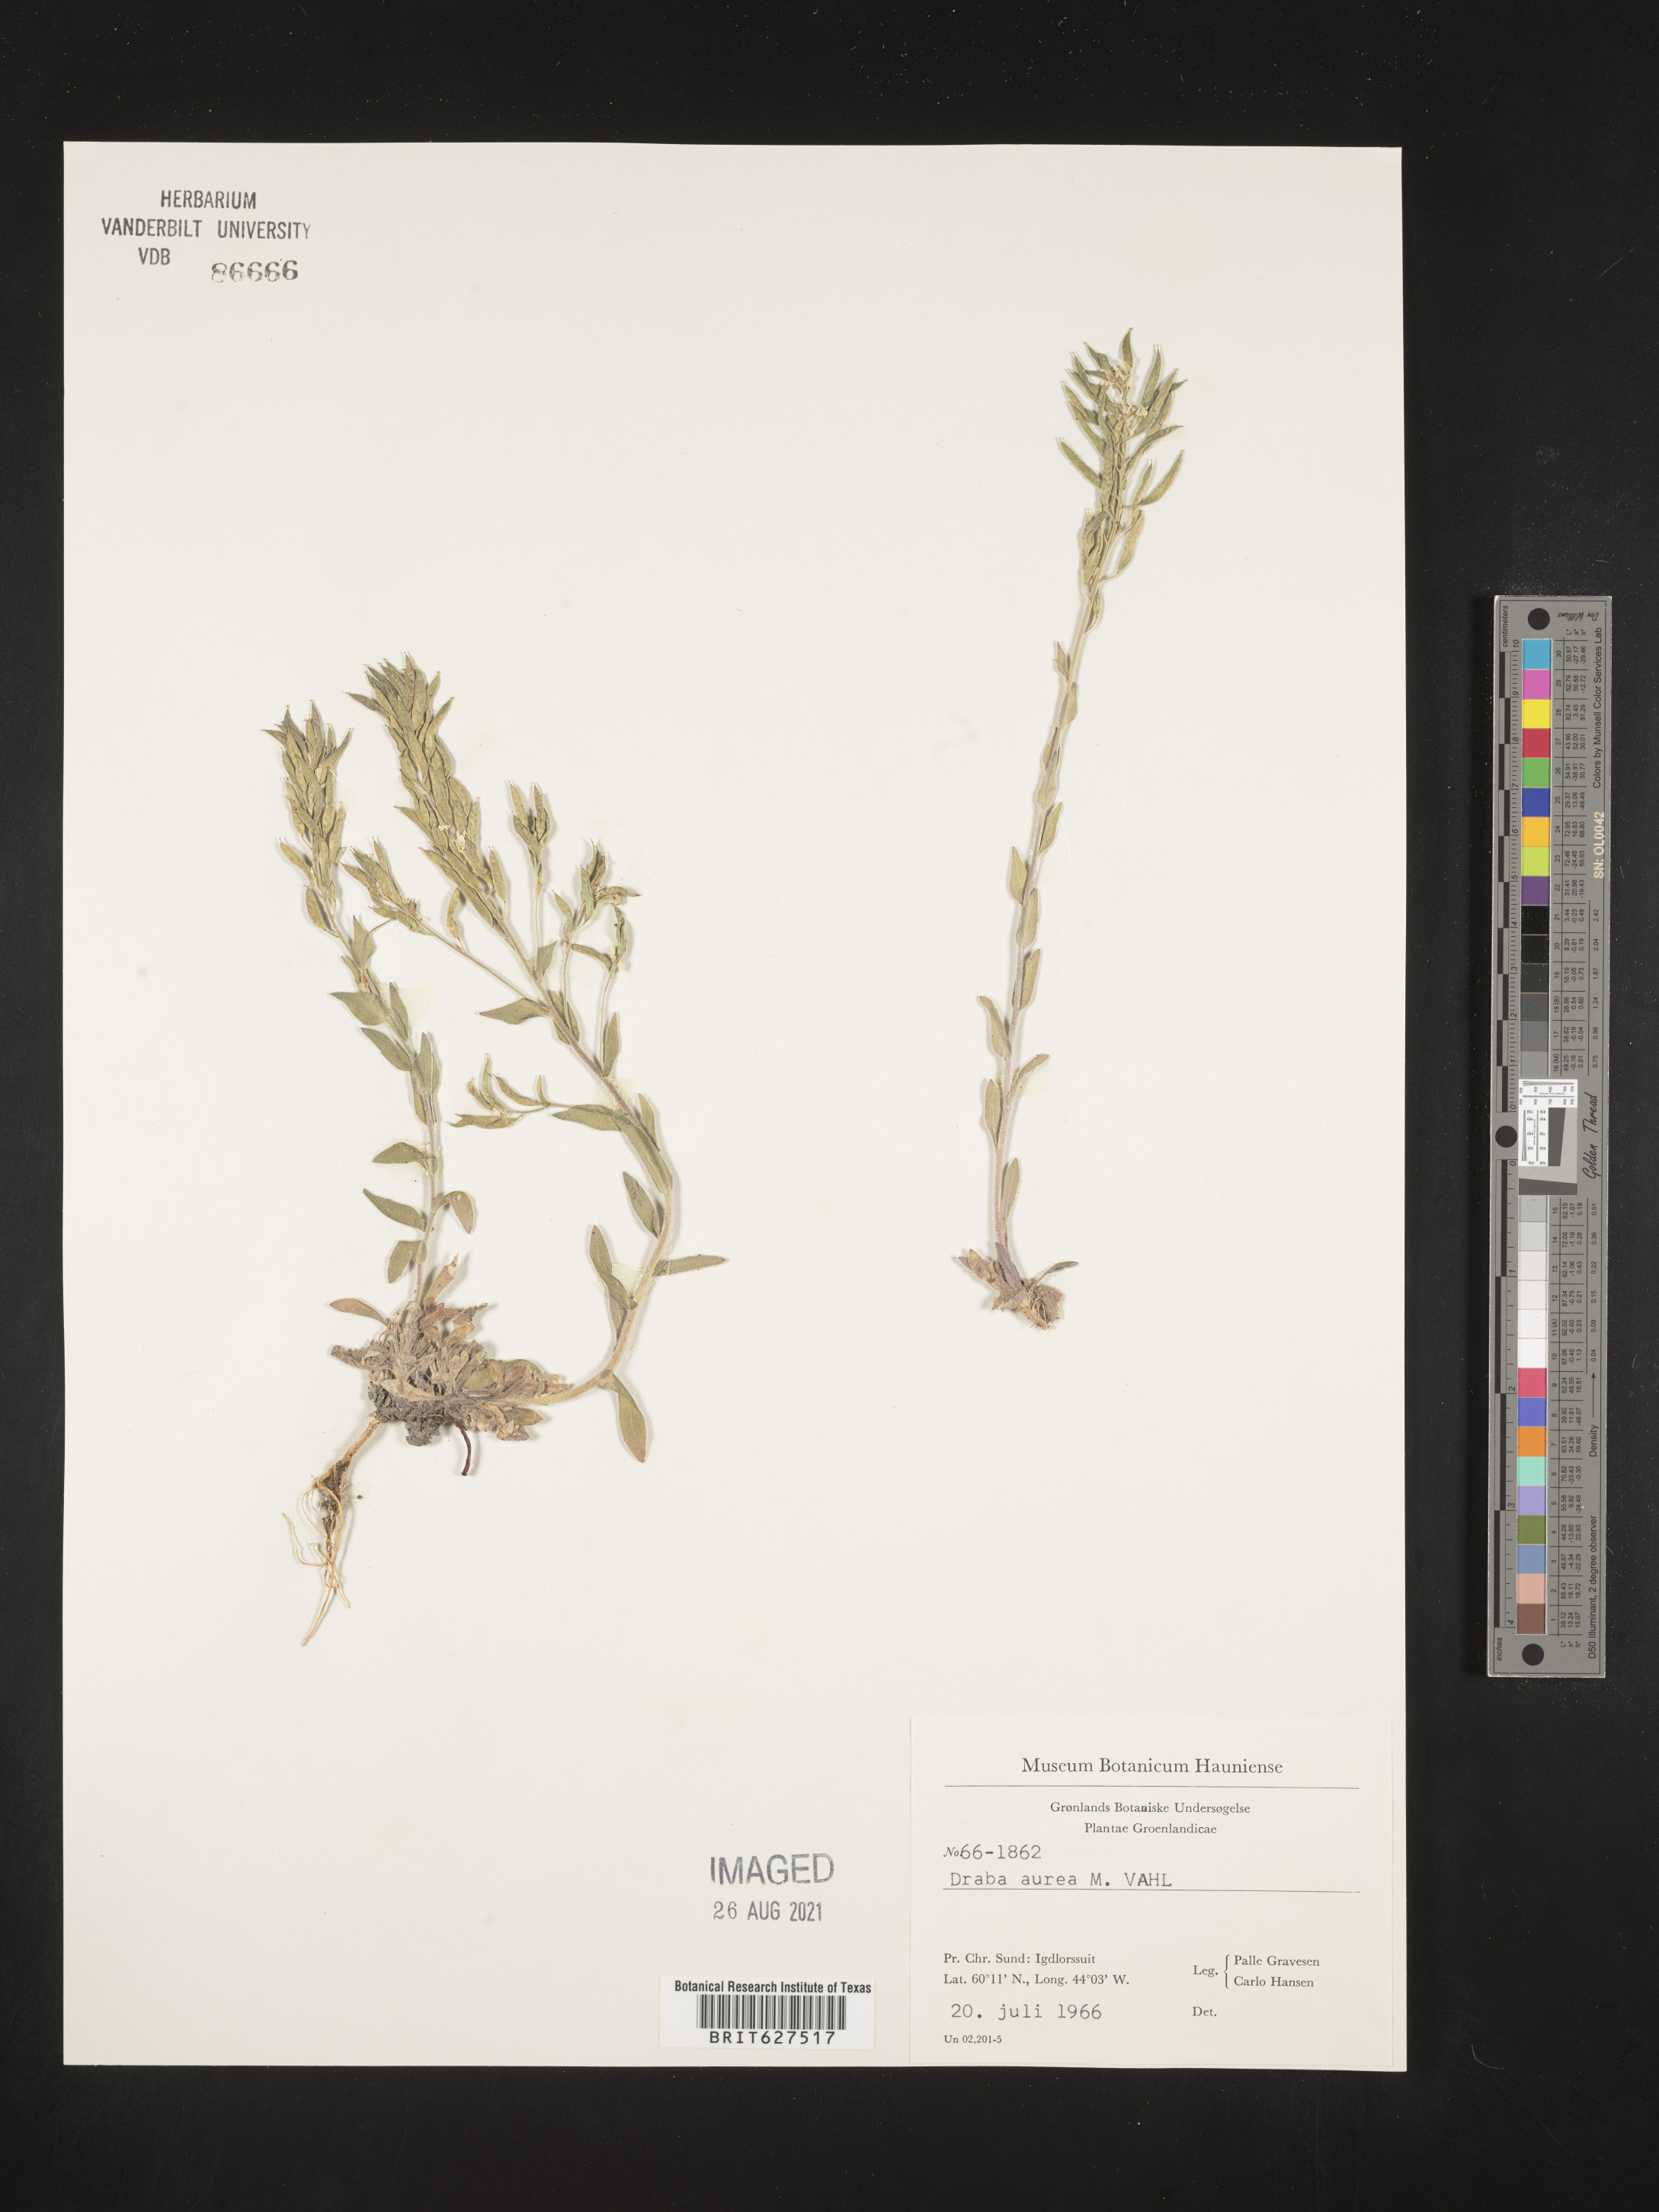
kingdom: Plantae
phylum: Tracheophyta
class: Magnoliopsida
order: Brassicales
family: Brassicaceae
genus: Draba
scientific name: Draba aurea
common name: Golden draba
